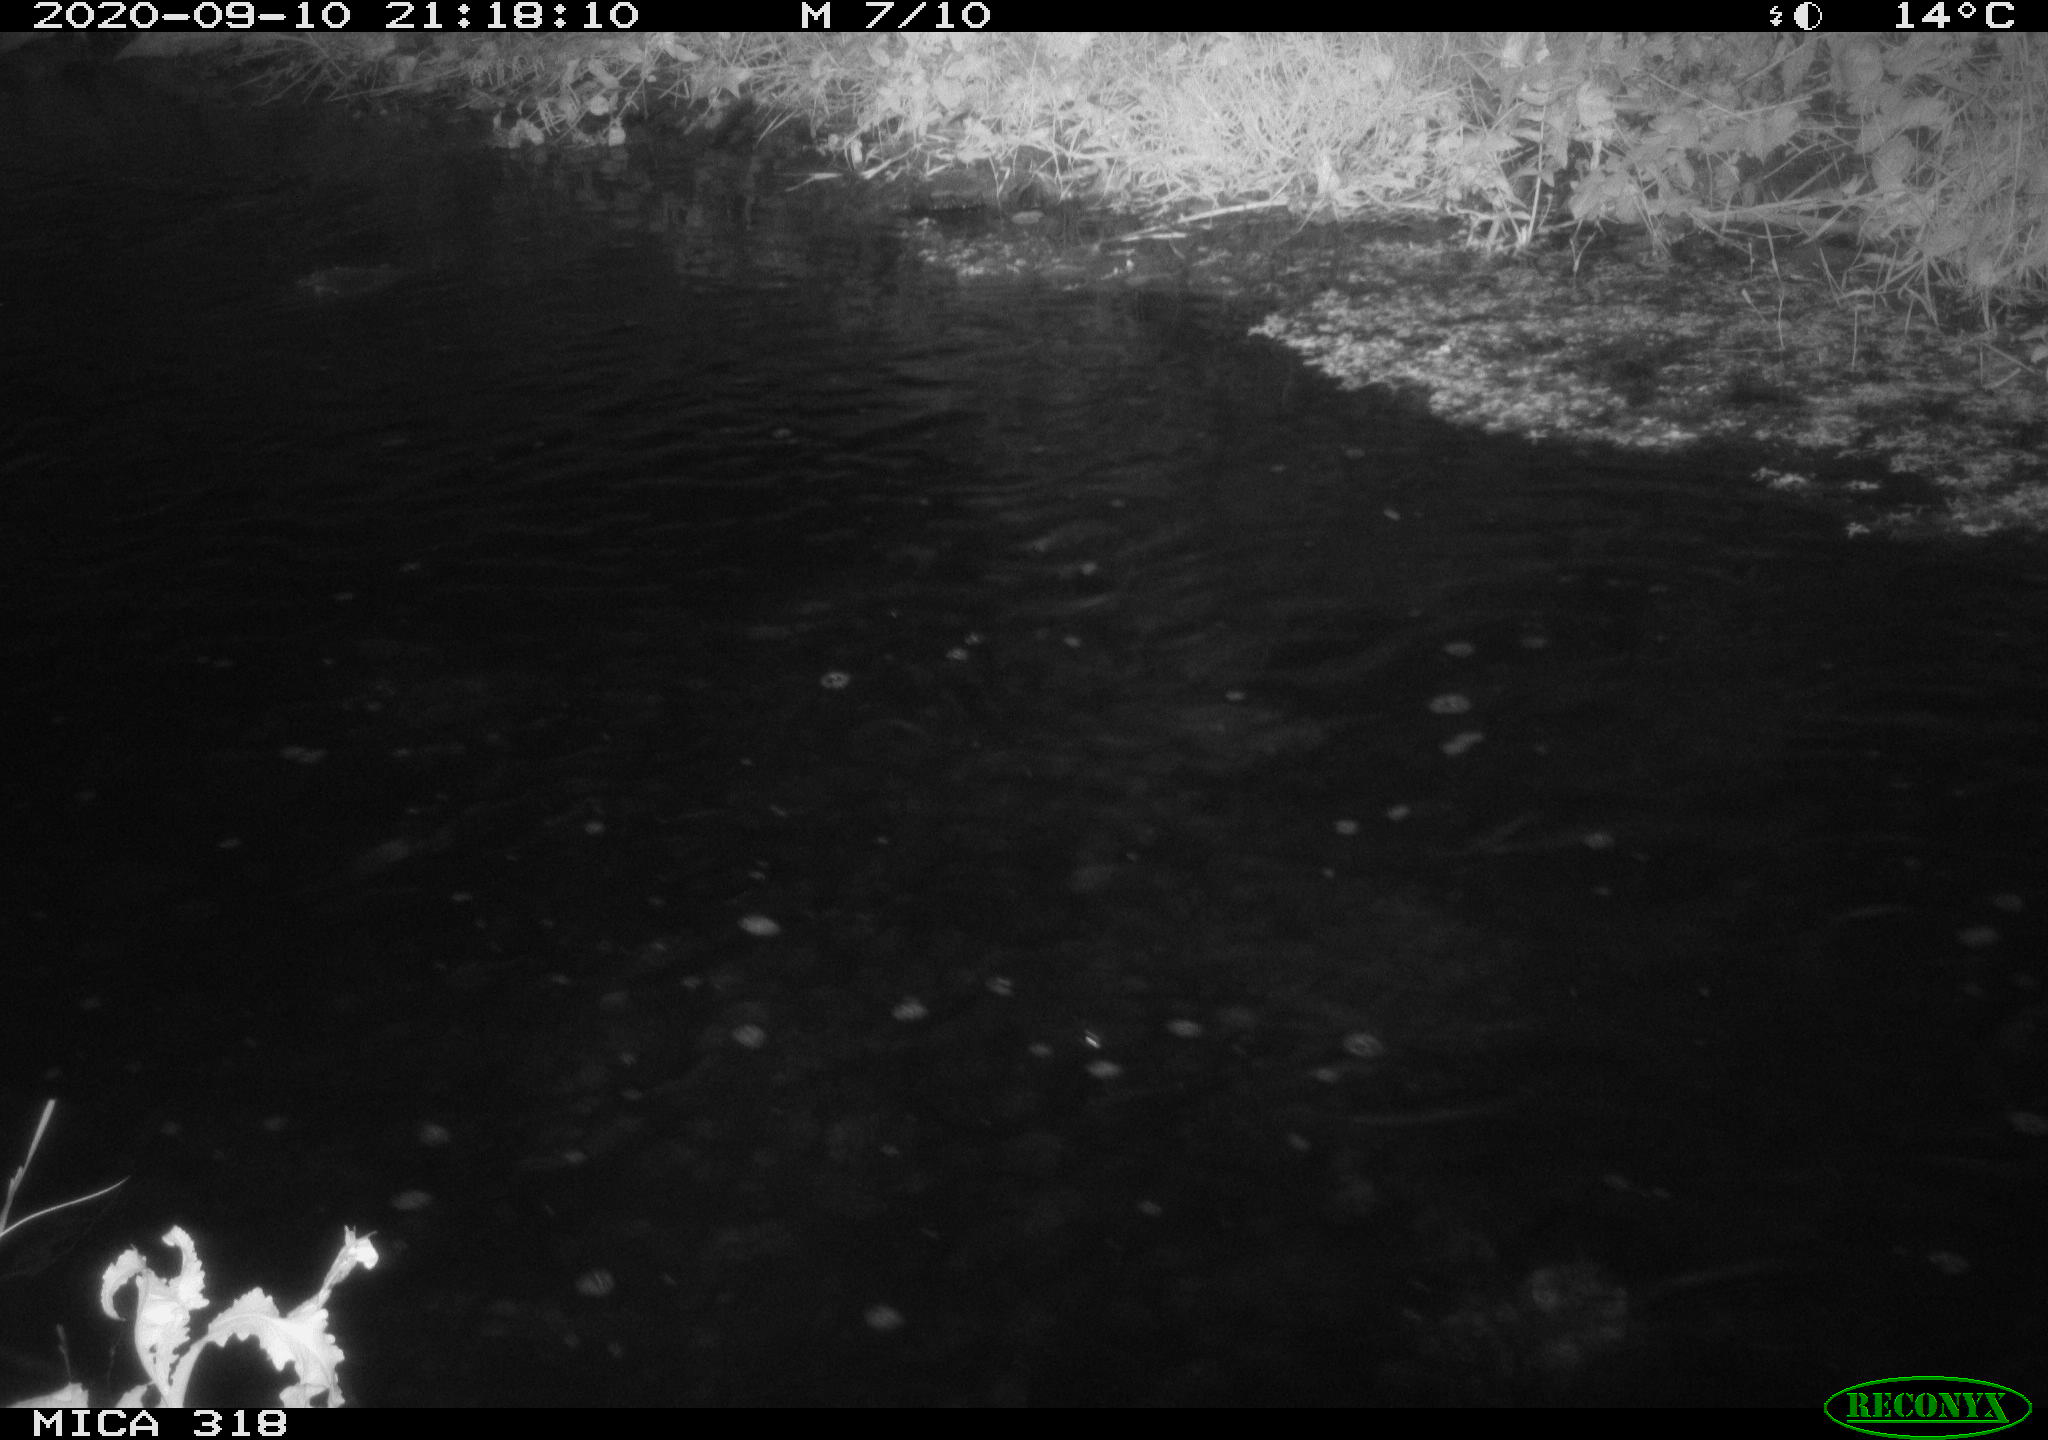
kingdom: Animalia
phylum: Chordata
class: Aves
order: Pelecaniformes
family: Ardeidae
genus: Ardea
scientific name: Ardea
